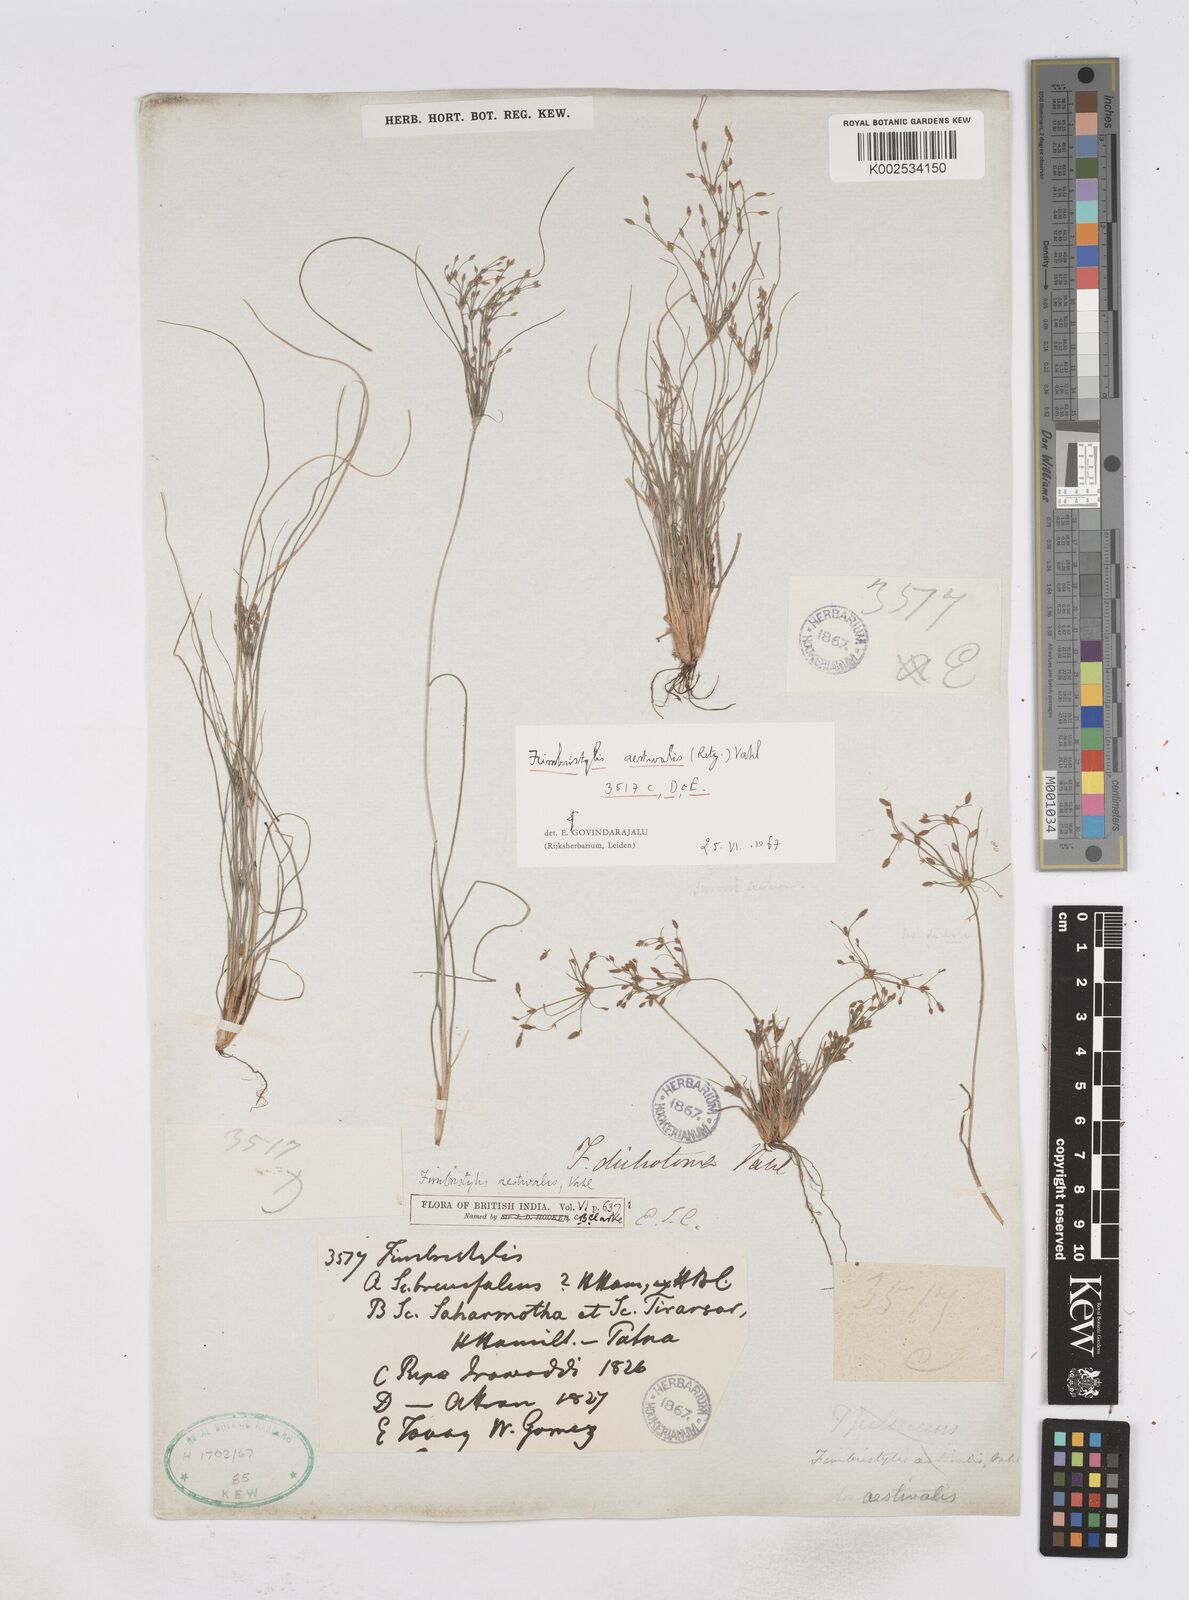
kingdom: Plantae
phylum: Tracheophyta
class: Liliopsida
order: Poales
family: Cyperaceae
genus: Fimbristylis
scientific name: Fimbristylis aestivalis
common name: Summer fimbry
